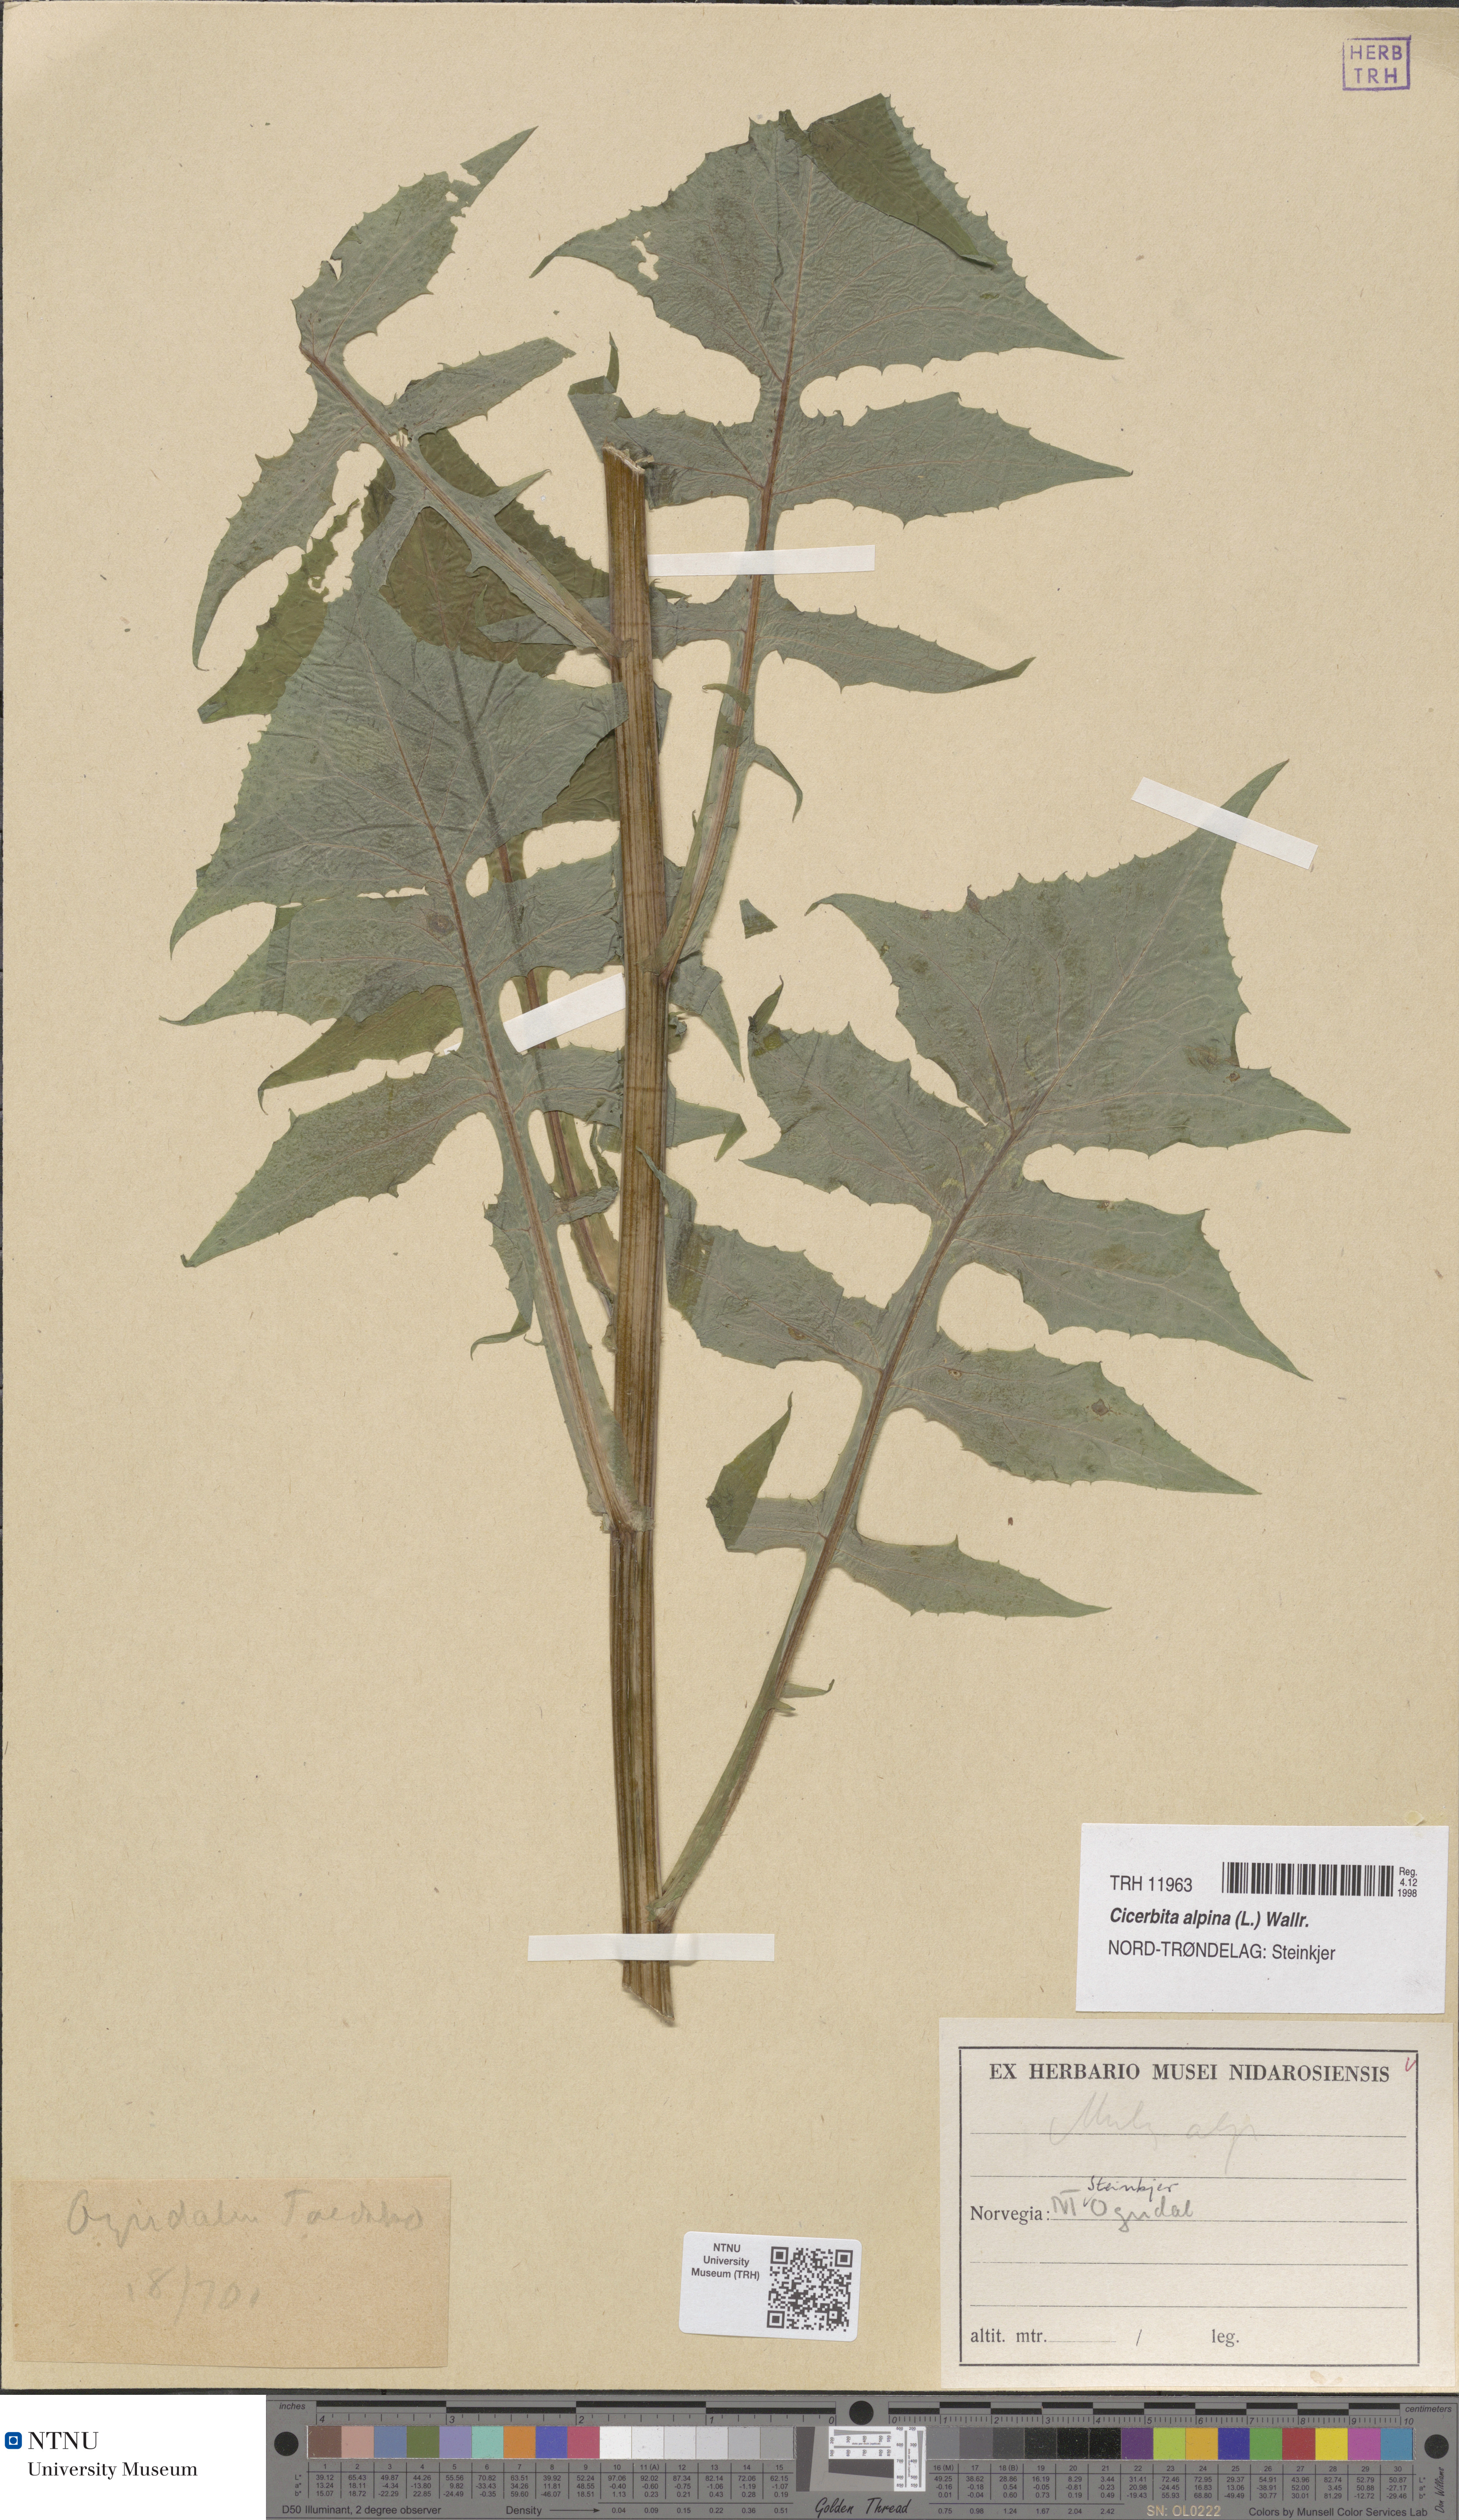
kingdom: Plantae
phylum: Tracheophyta
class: Magnoliopsida
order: Asterales
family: Asteraceae
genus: Cicerbita
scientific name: Cicerbita alpina
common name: Alpine blue-sow-thistle
